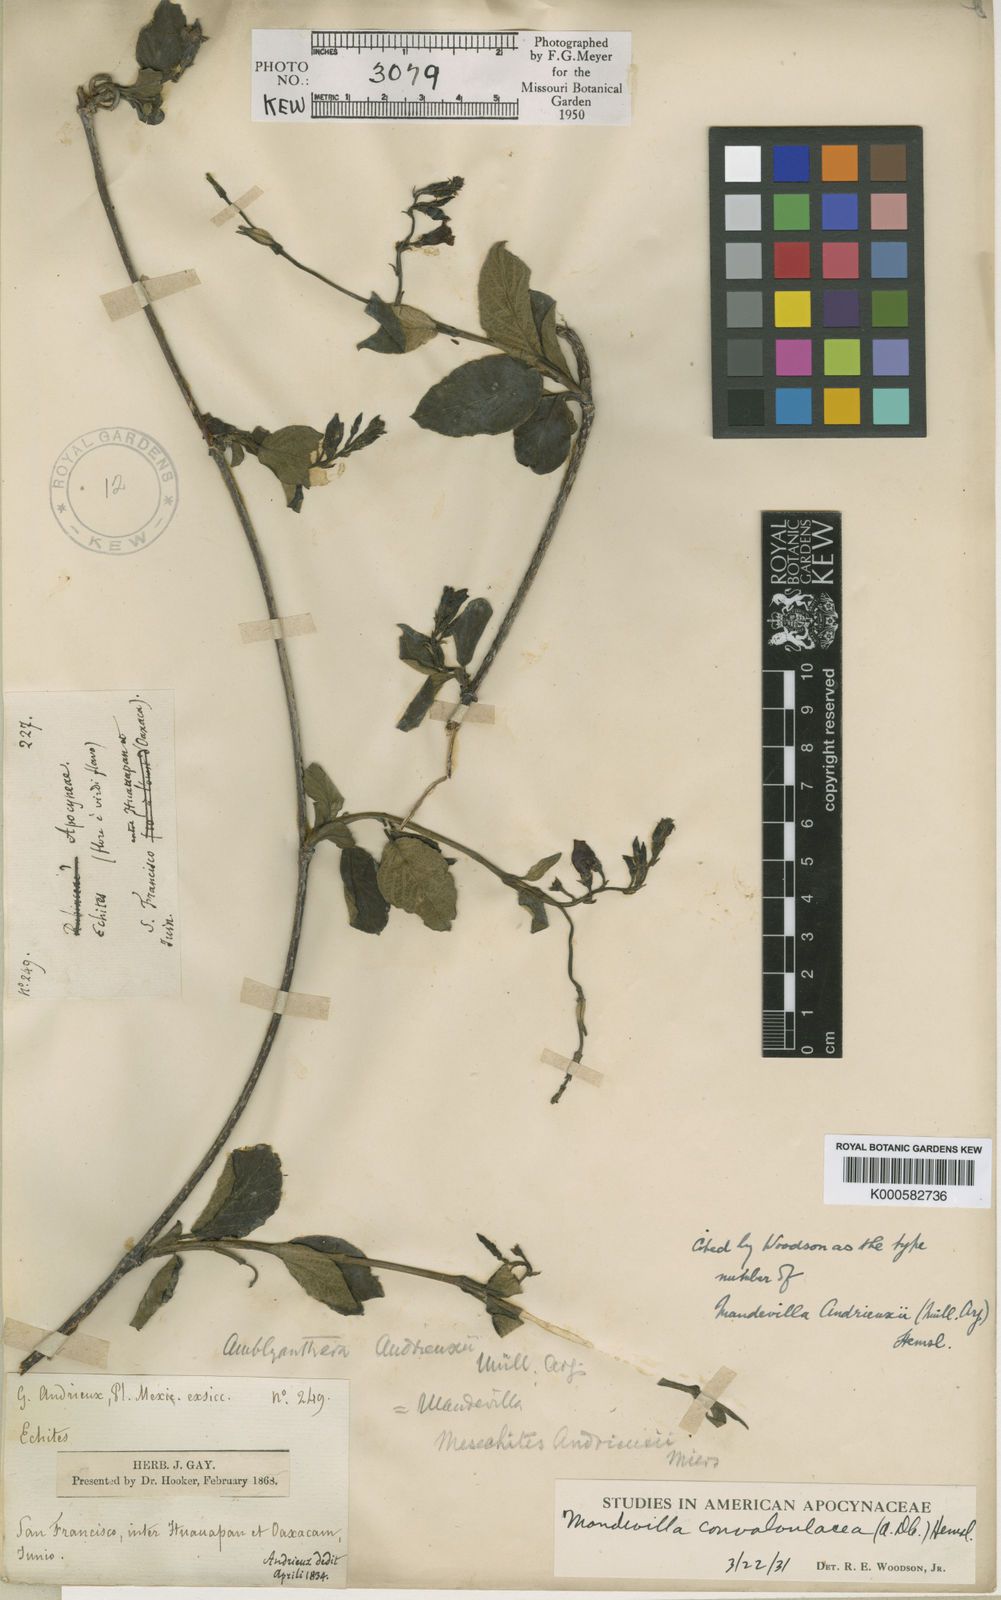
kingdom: Plantae
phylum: Tracheophyta
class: Magnoliopsida
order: Gentianales
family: Apocynaceae
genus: Mandevilla
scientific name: Mandevilla
